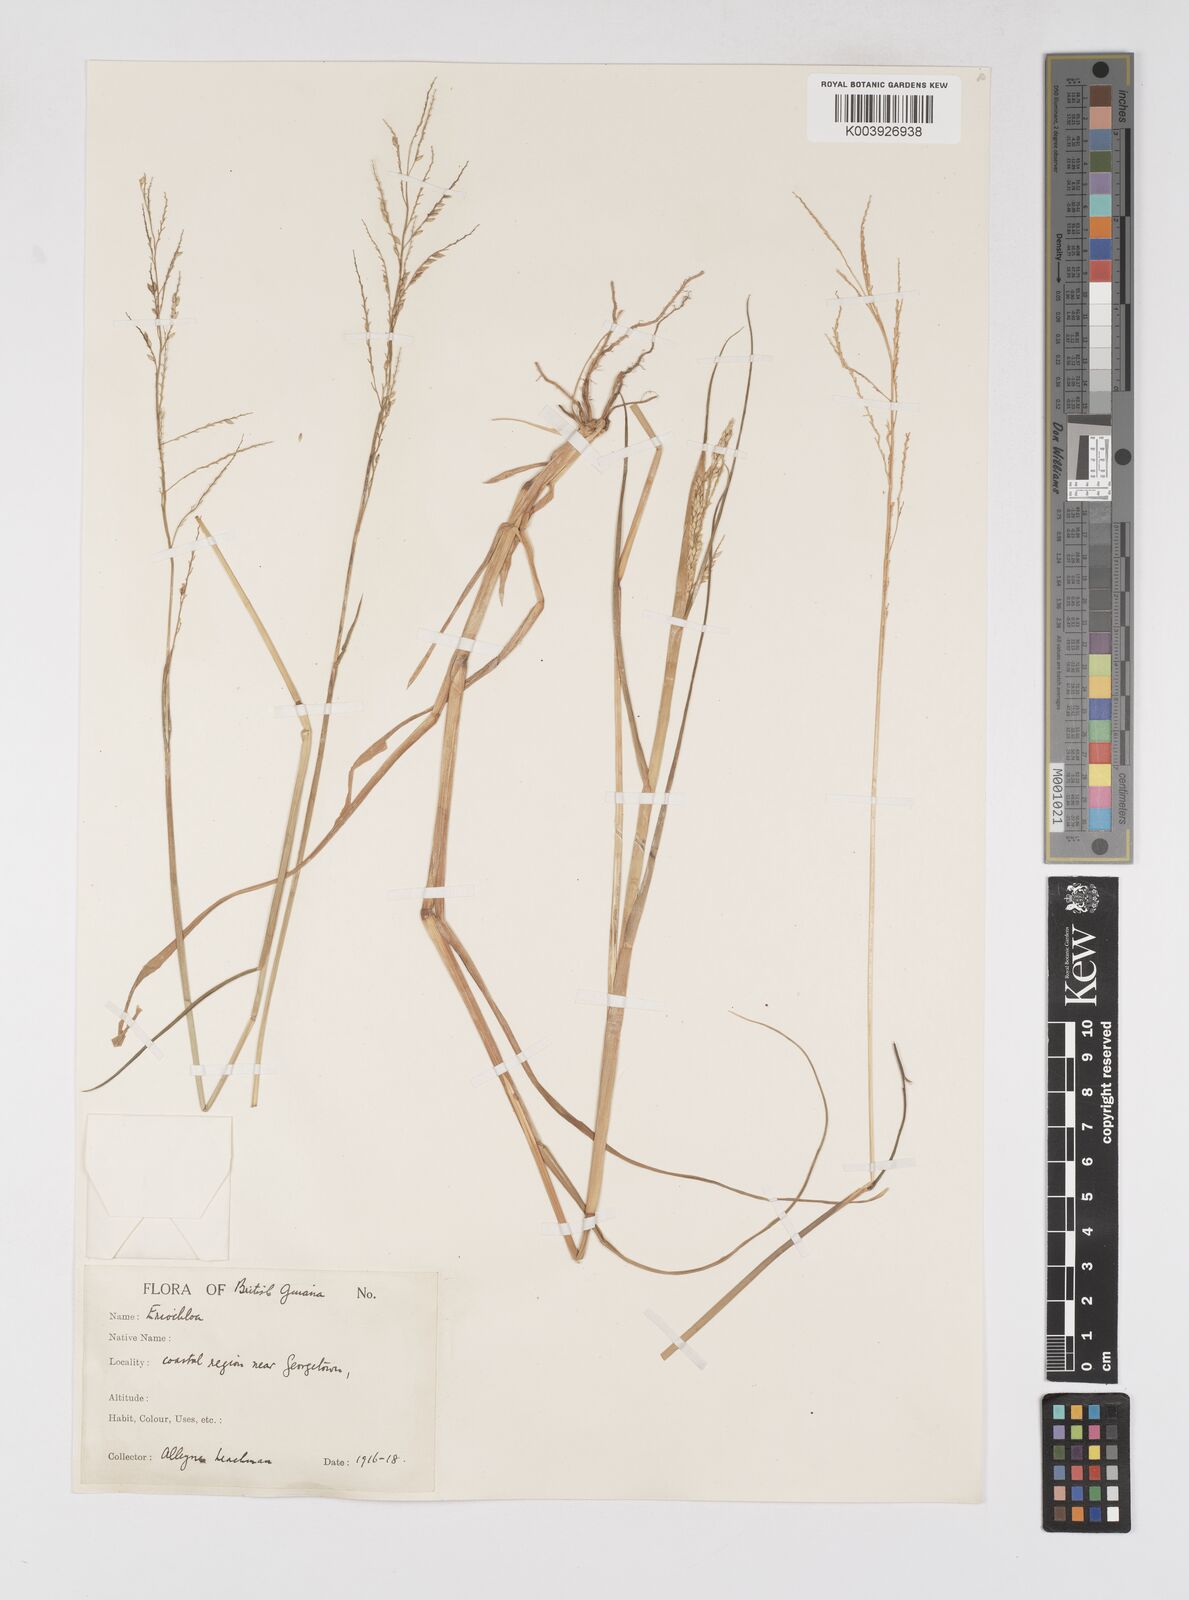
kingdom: Plantae
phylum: Tracheophyta
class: Liliopsida
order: Poales
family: Poaceae
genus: Eriochloa
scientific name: Eriochloa procera
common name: Spring grass
